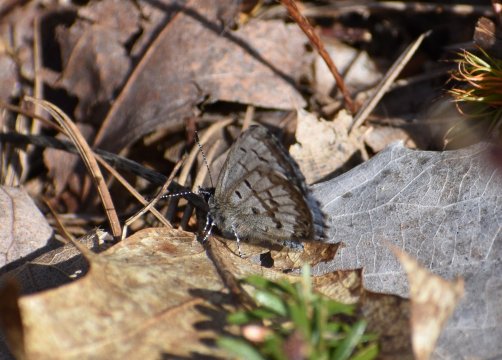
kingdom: Animalia
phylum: Arthropoda
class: Insecta
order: Lepidoptera
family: Lycaenidae
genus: Celastrina
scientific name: Celastrina lucia
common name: Northern Spring Azure
